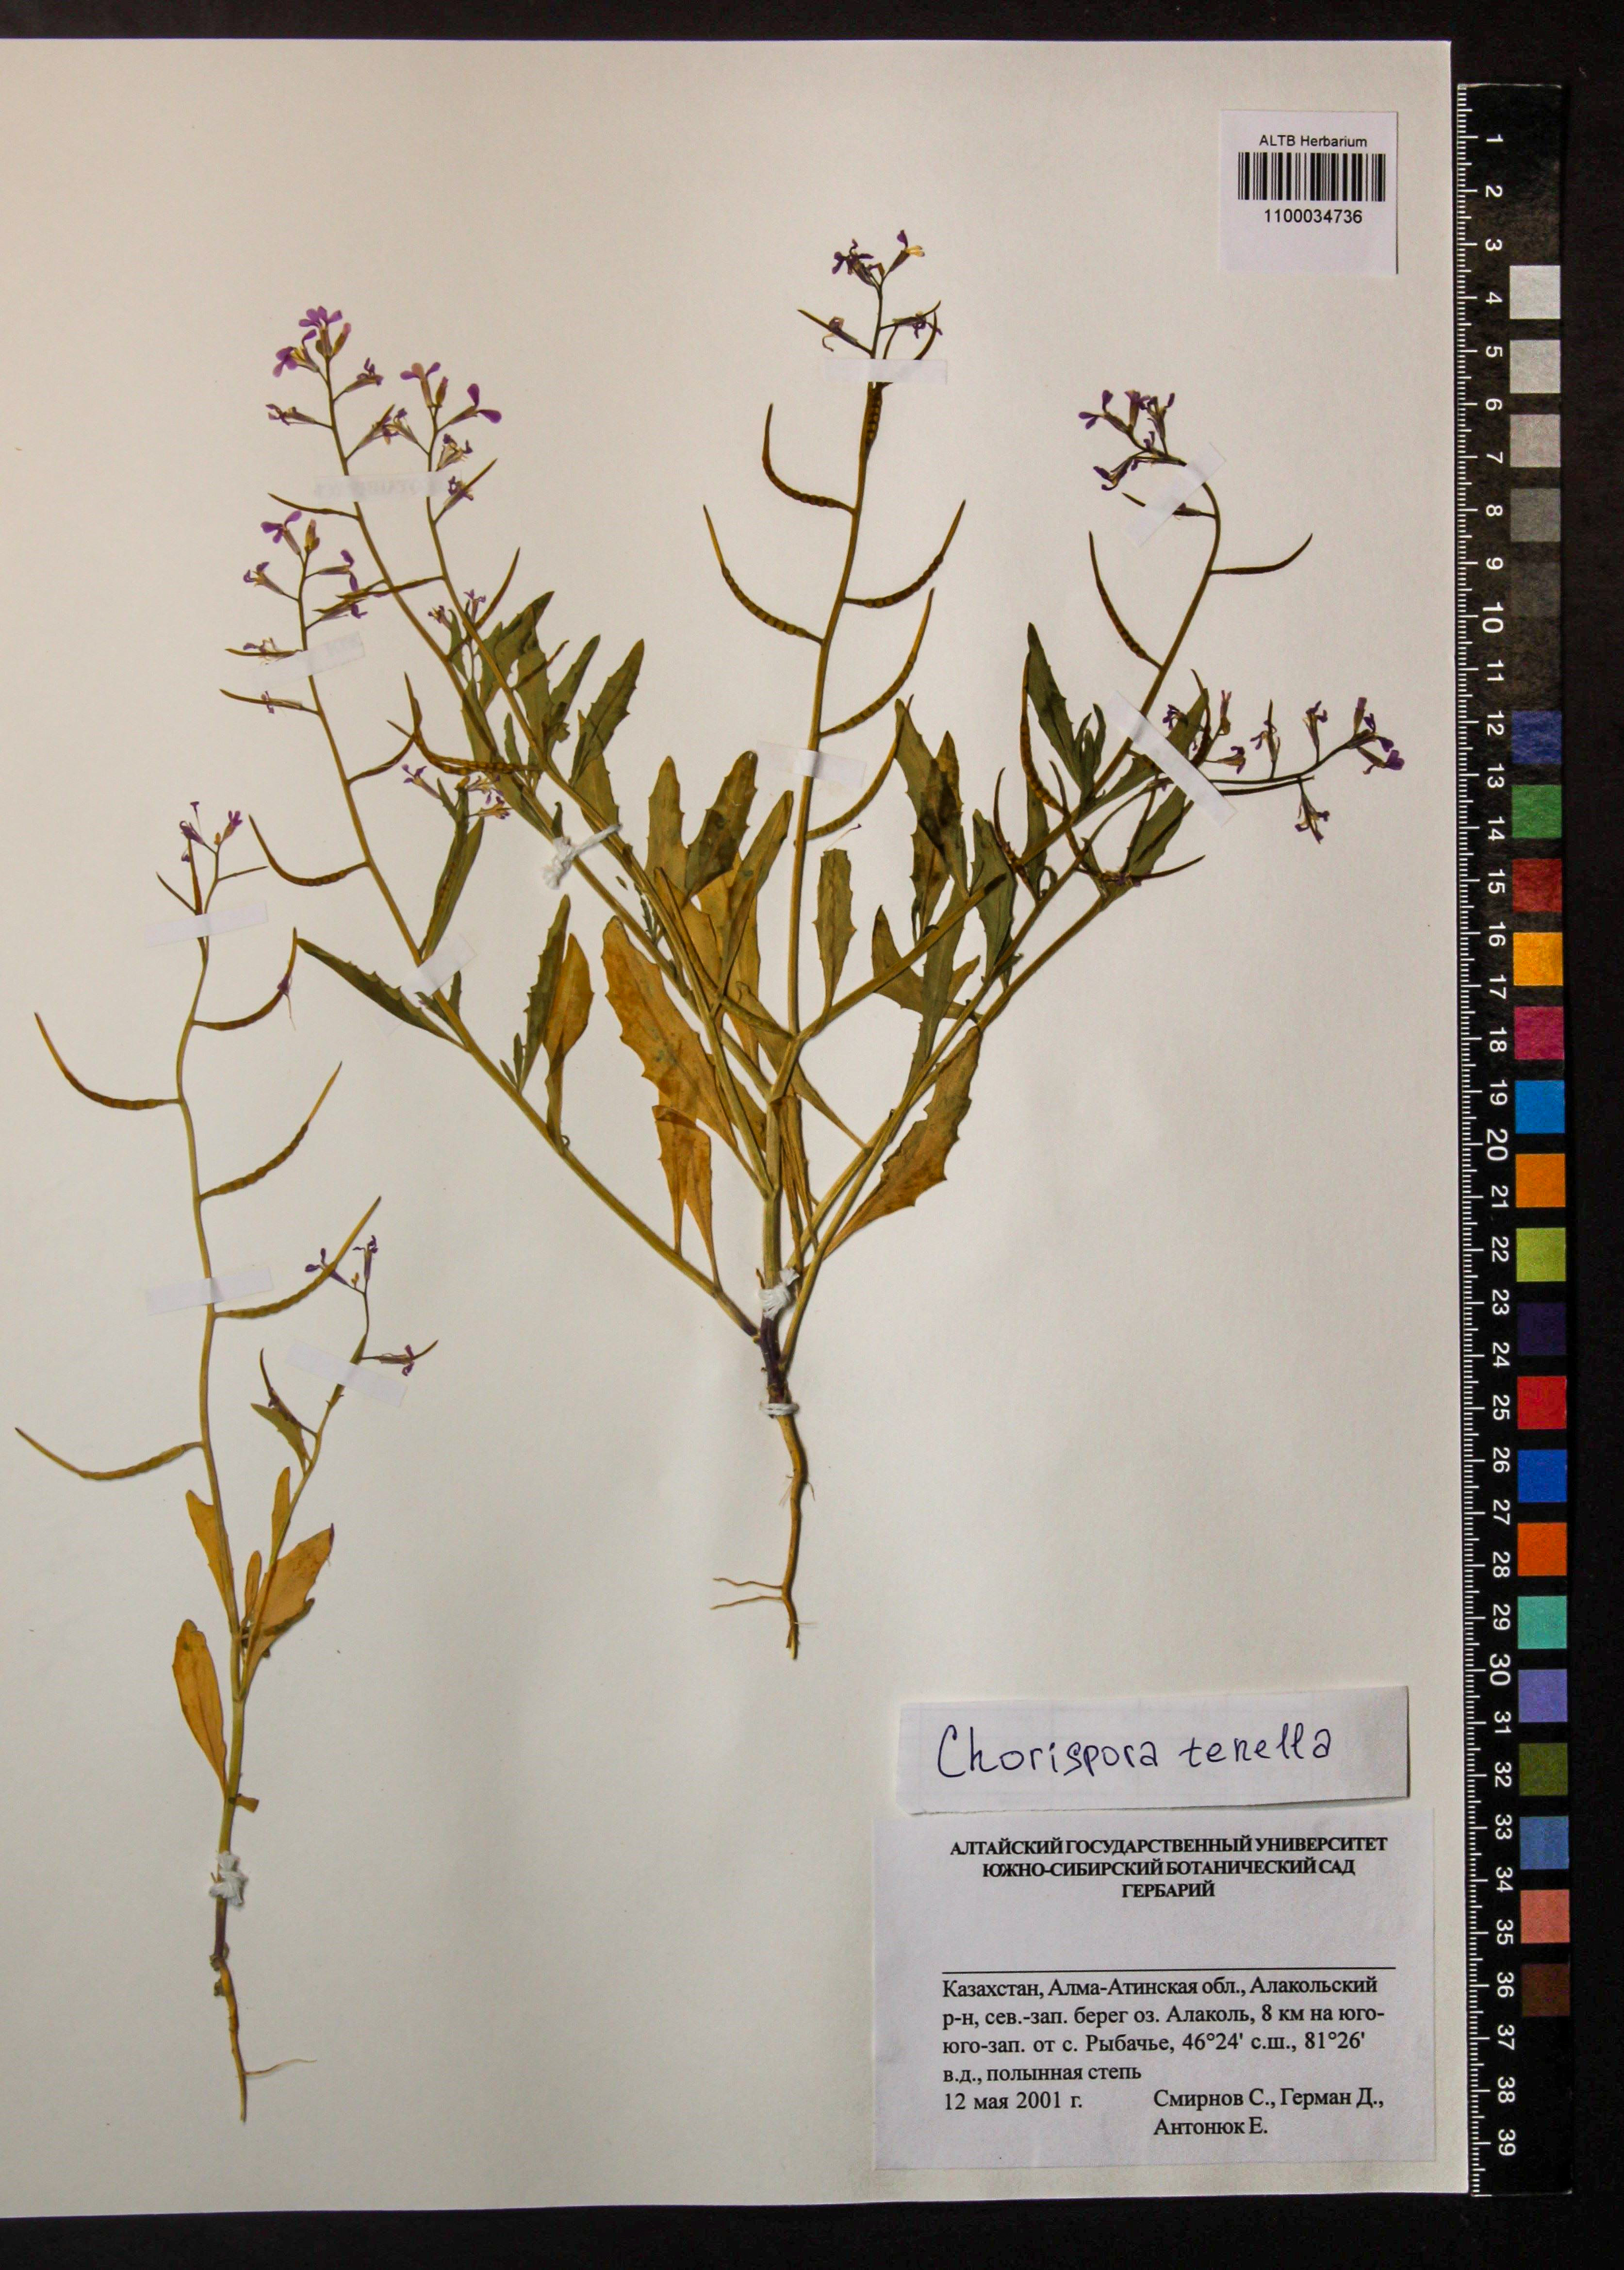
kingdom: Plantae
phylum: Tracheophyta
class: Magnoliopsida
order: Brassicales
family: Brassicaceae
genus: Chorispora
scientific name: Chorispora tenella
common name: Crossflower
